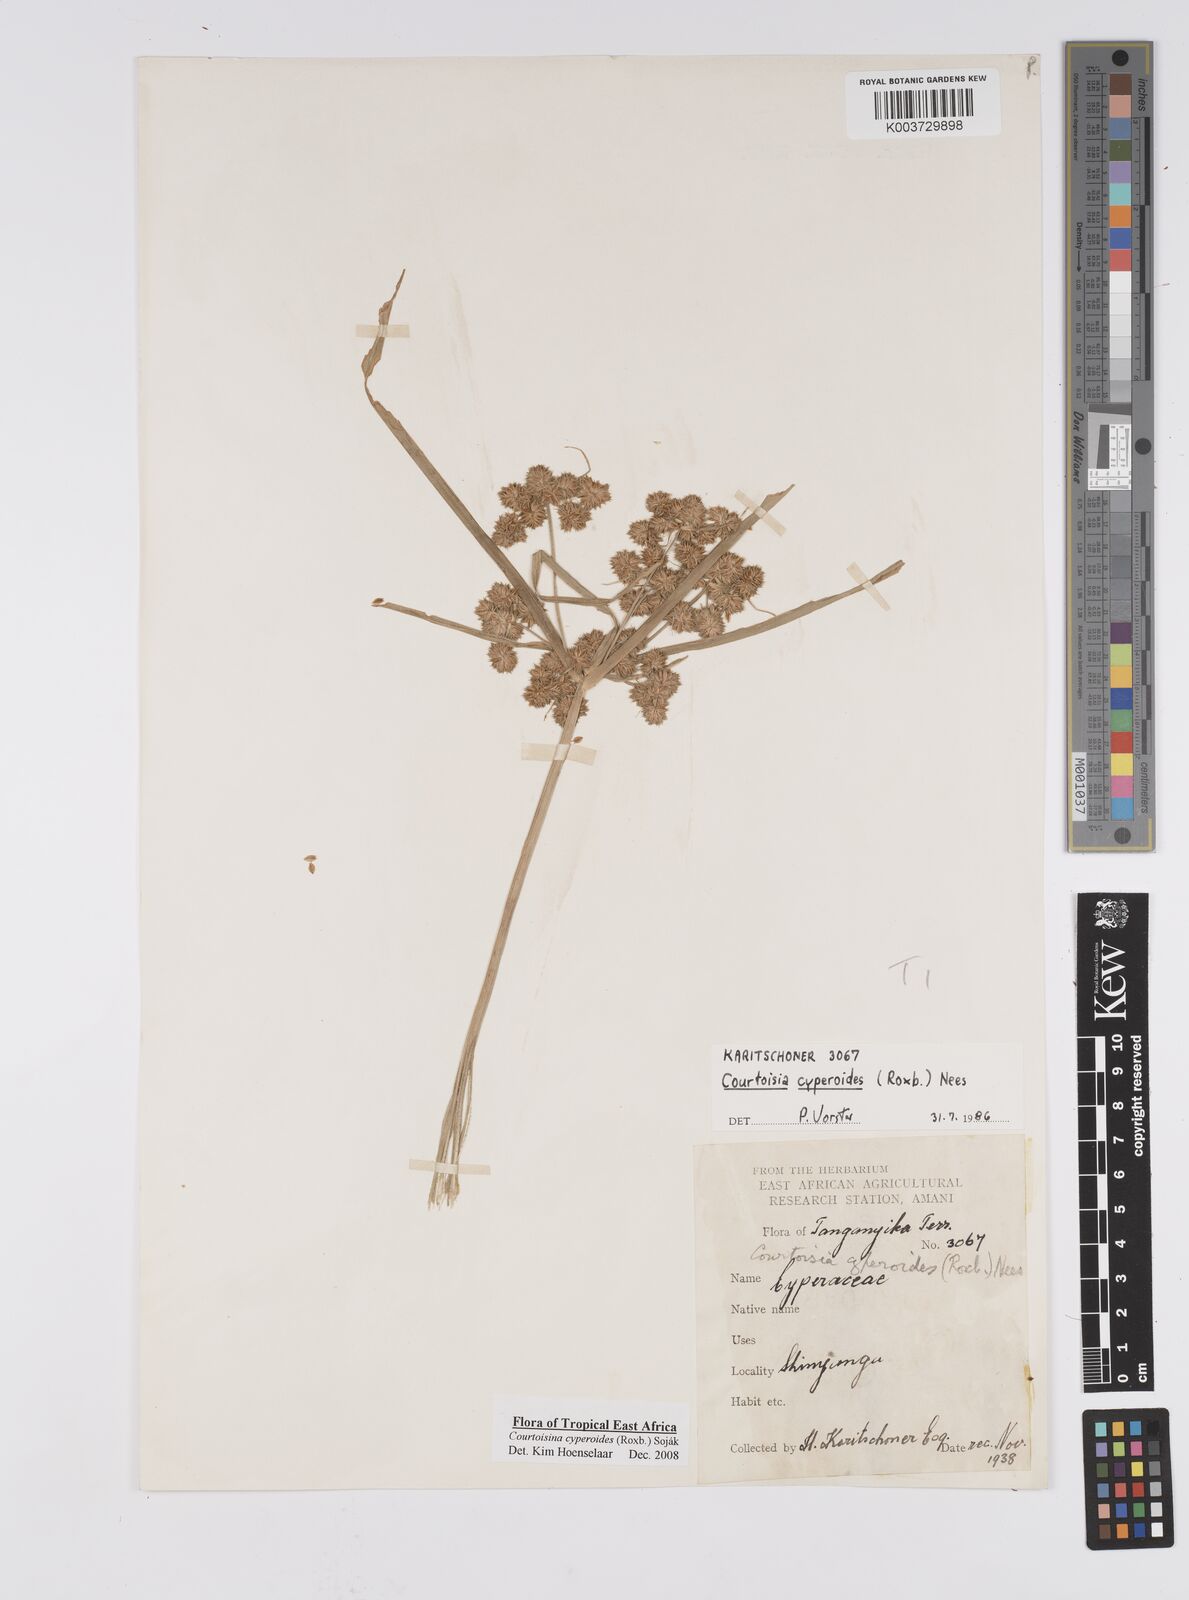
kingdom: Plantae
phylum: Tracheophyta
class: Liliopsida
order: Poales
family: Cyperaceae
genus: Cyperus
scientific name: Cyperus cyperoides
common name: Pacific island flat sedge
